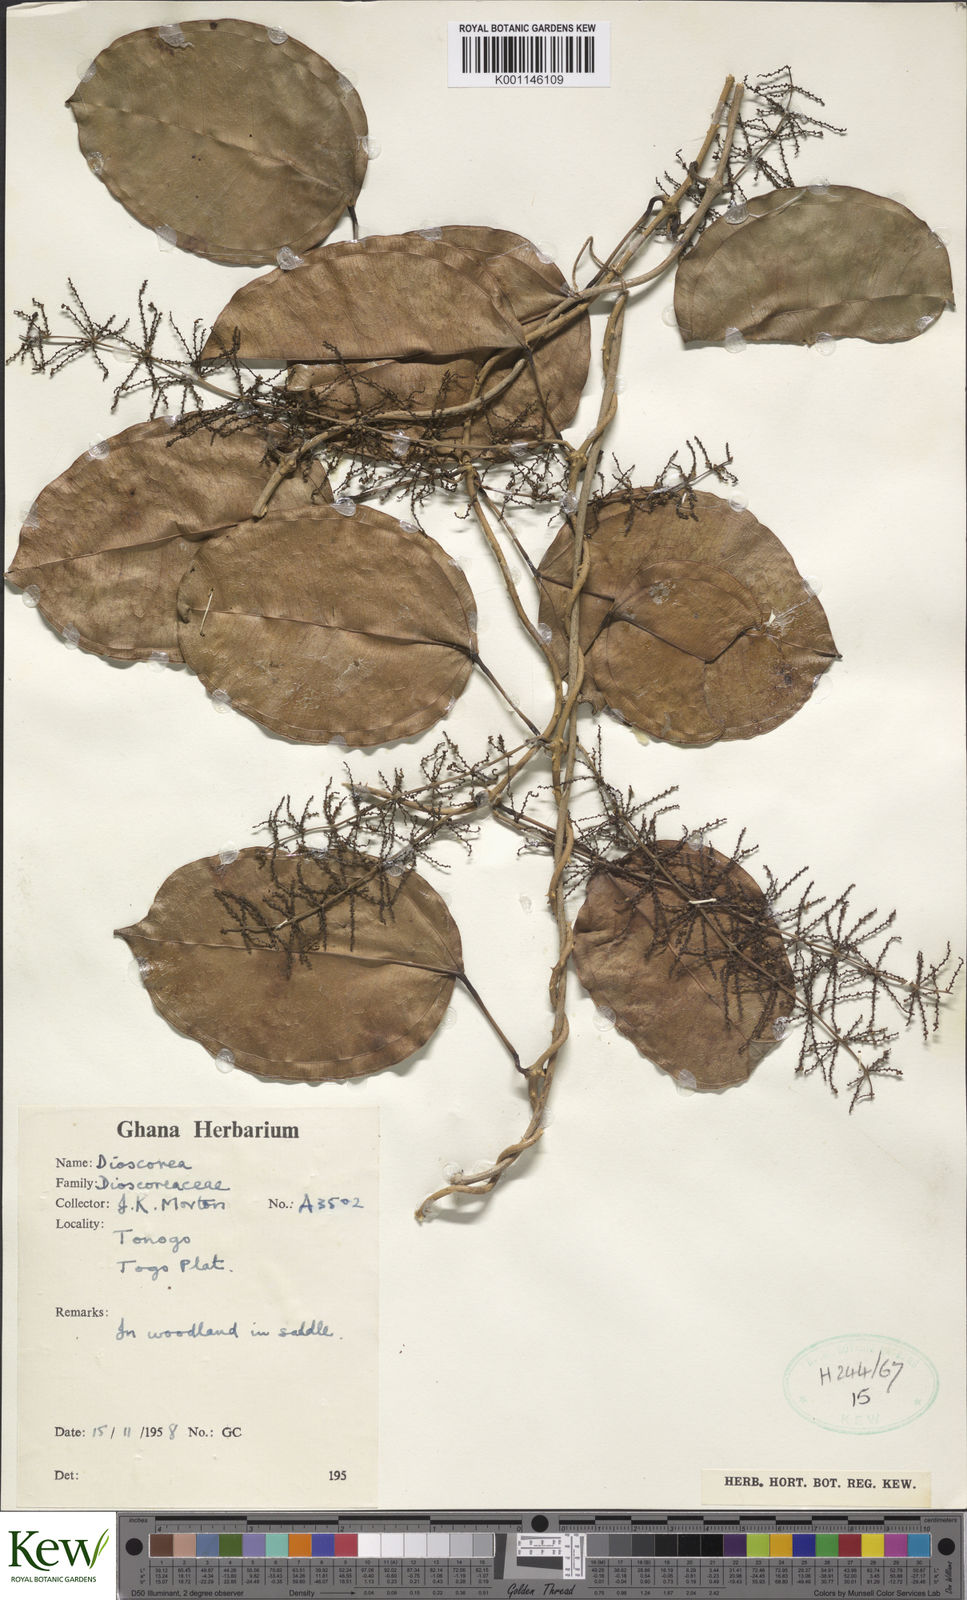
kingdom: Plantae
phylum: Tracheophyta
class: Liliopsida
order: Dioscoreales
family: Dioscoreaceae
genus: Dioscorea
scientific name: Dioscorea
